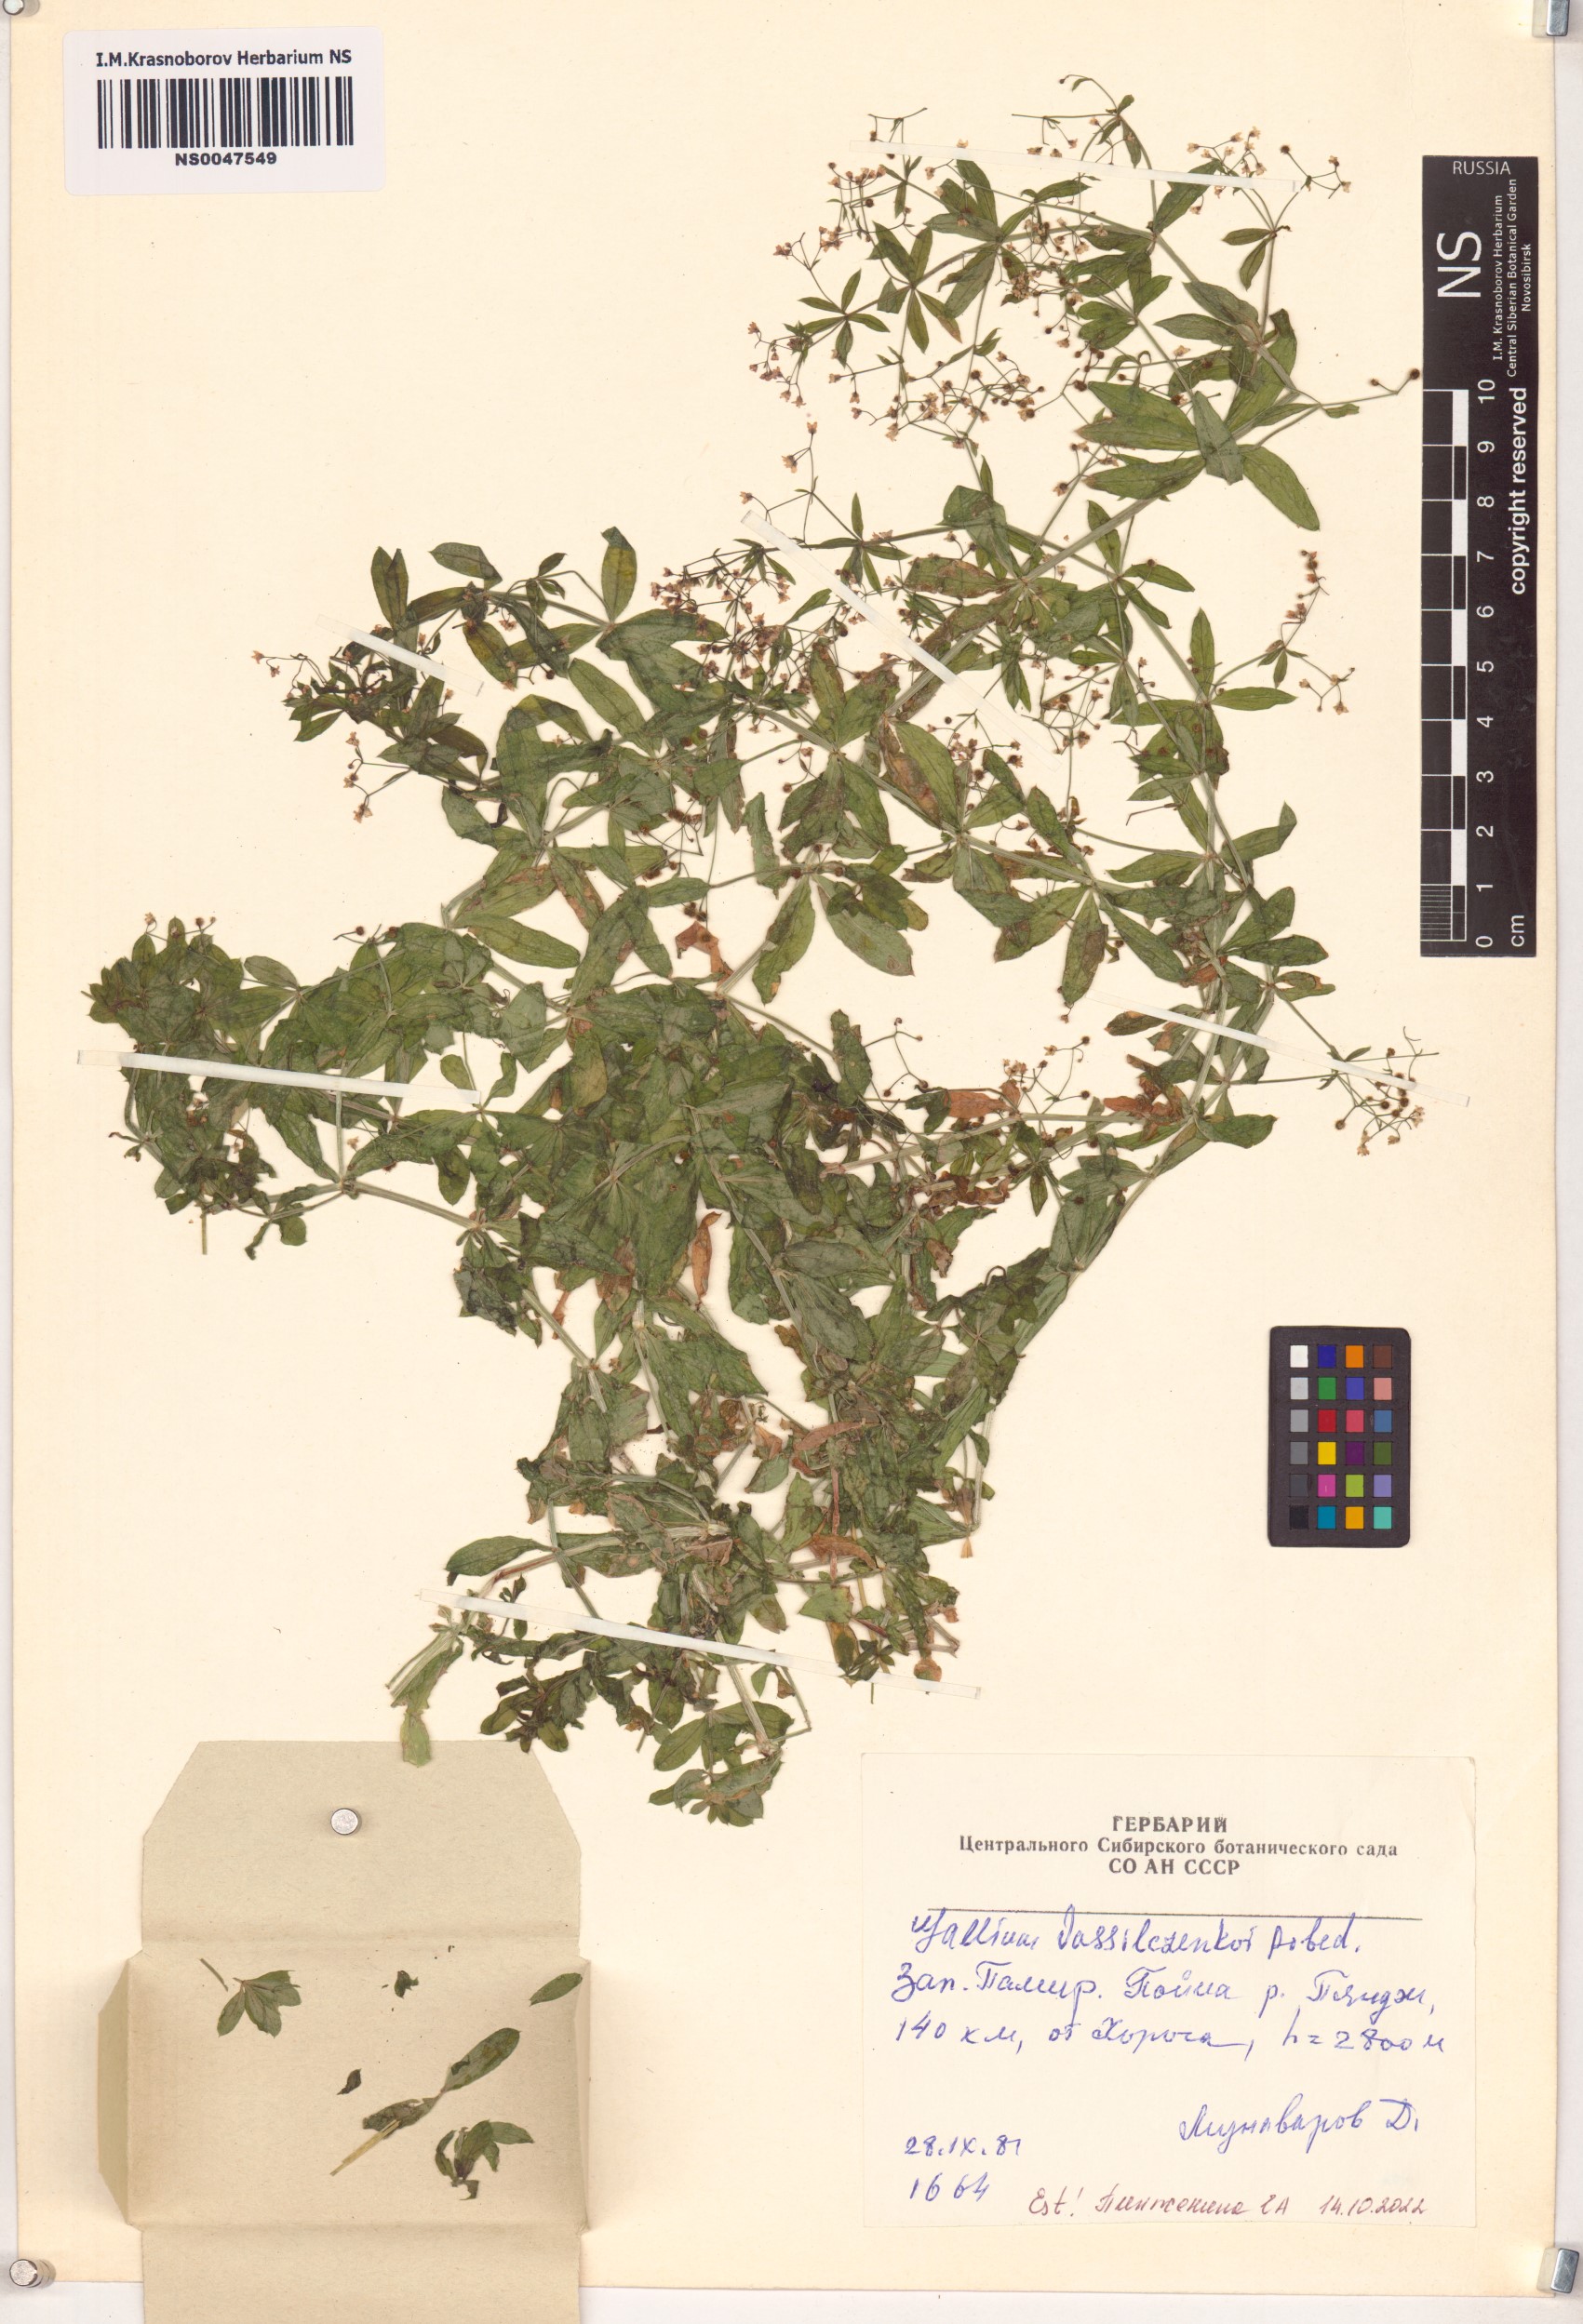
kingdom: Plantae
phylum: Tracheophyta
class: Magnoliopsida
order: Gentianales
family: Rubiaceae
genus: Galium
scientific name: Galium vassilczenkoi
